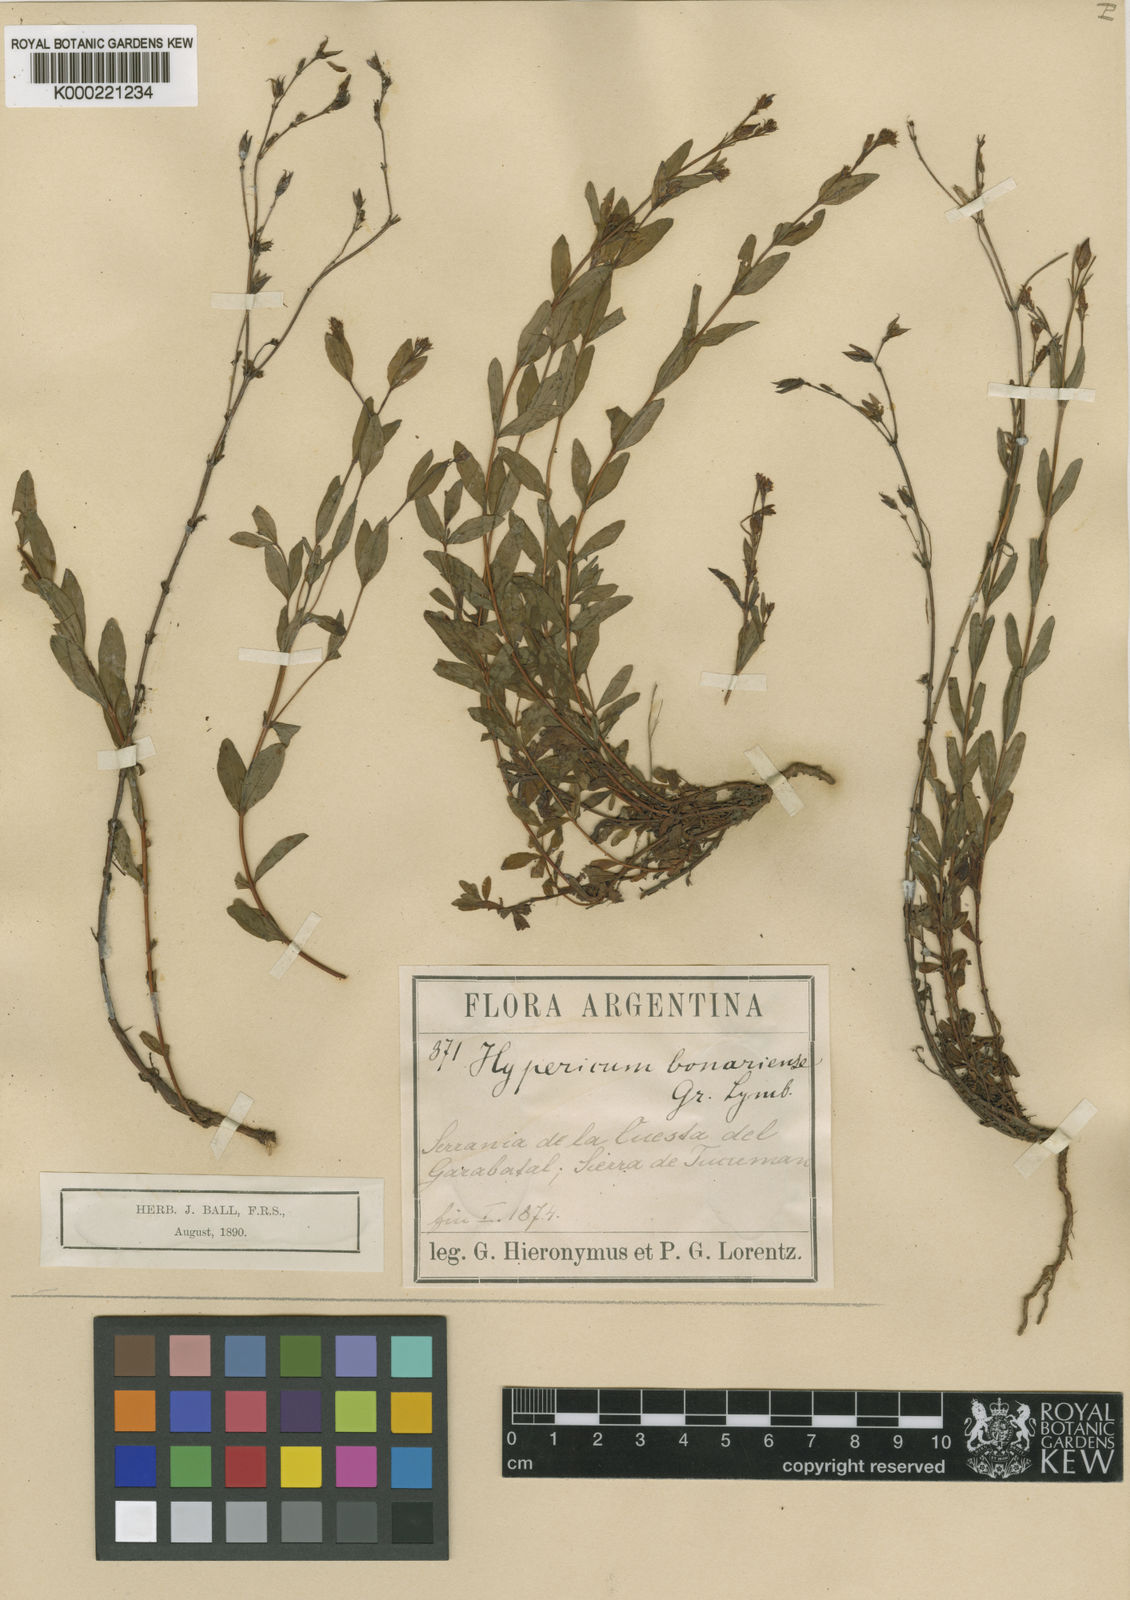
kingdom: Plantae
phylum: Tracheophyta
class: Magnoliopsida
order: Malpighiales
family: Hypericaceae
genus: Hypericum
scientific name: Hypericum silenoides
